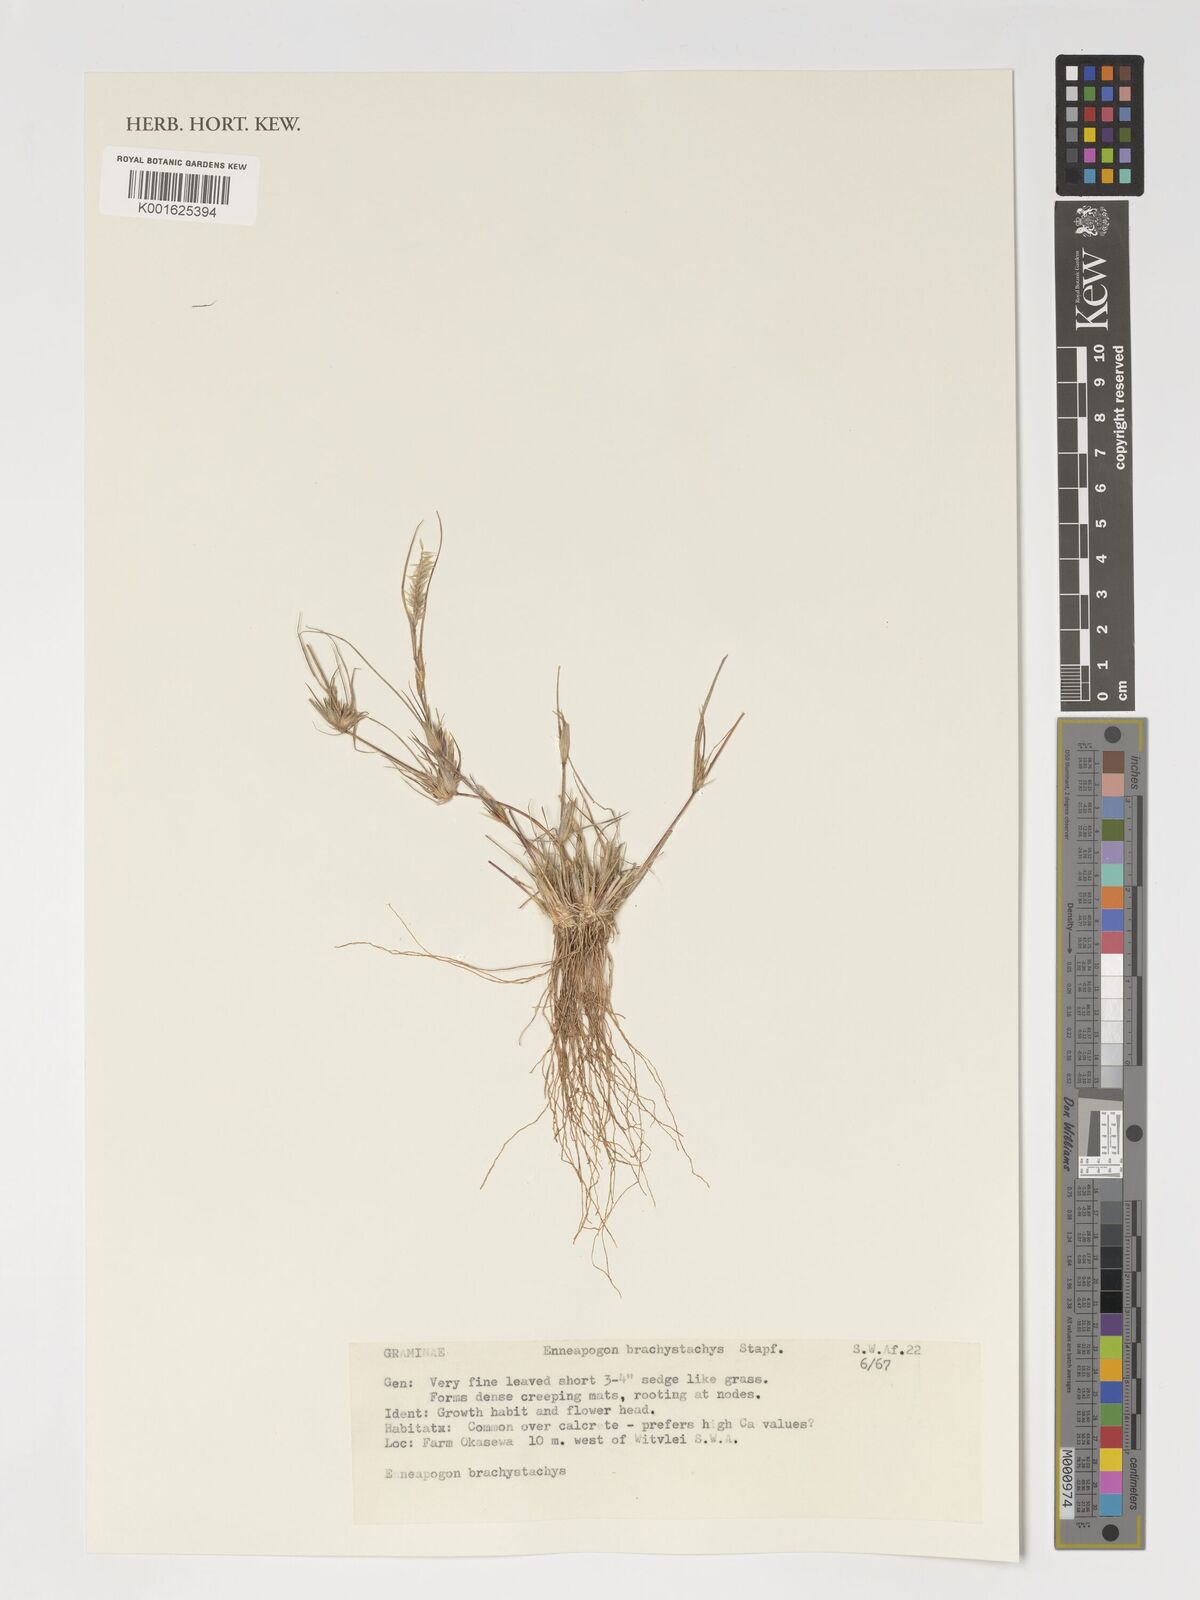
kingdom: Plantae
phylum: Tracheophyta
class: Liliopsida
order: Poales
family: Poaceae
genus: Enneapogon
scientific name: Enneapogon desvauxii
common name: Feather pappus grass
